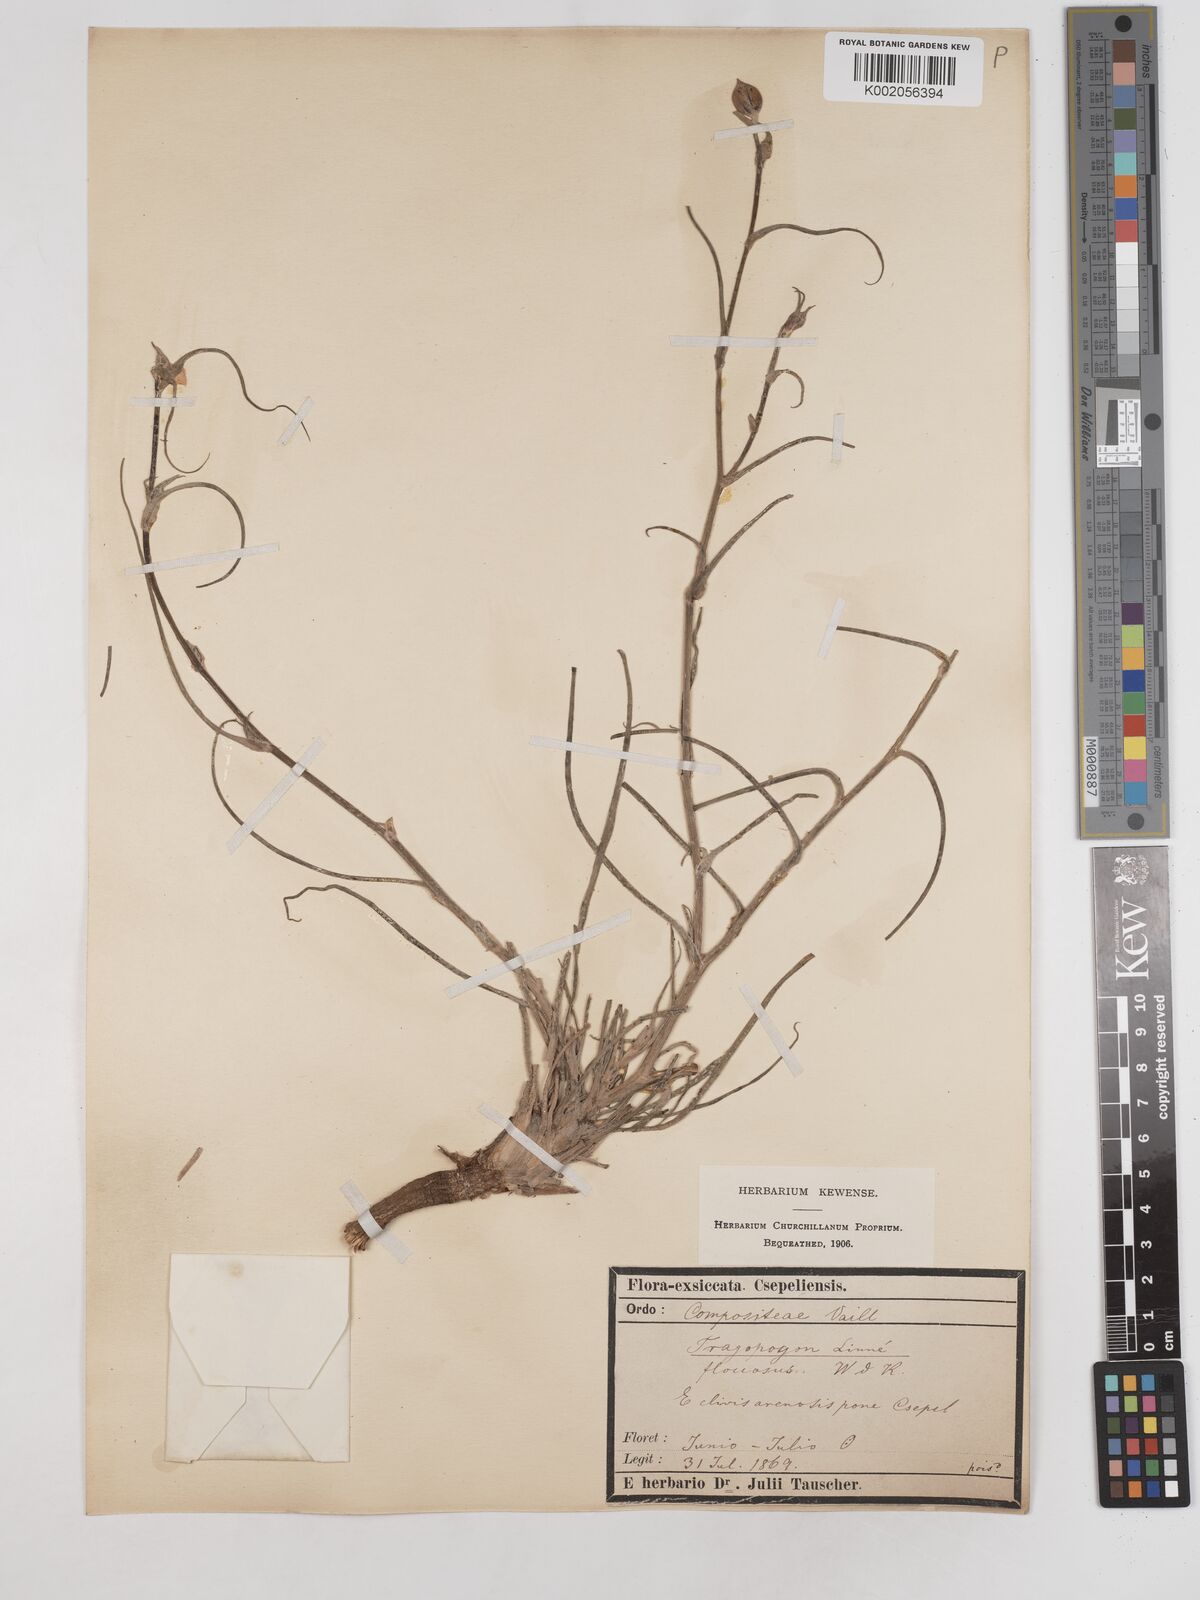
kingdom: Plantae
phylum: Tracheophyta
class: Magnoliopsida
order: Asterales
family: Asteraceae
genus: Tragopogon
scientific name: Tragopogon floccosus
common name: Woolly goatsbeard
